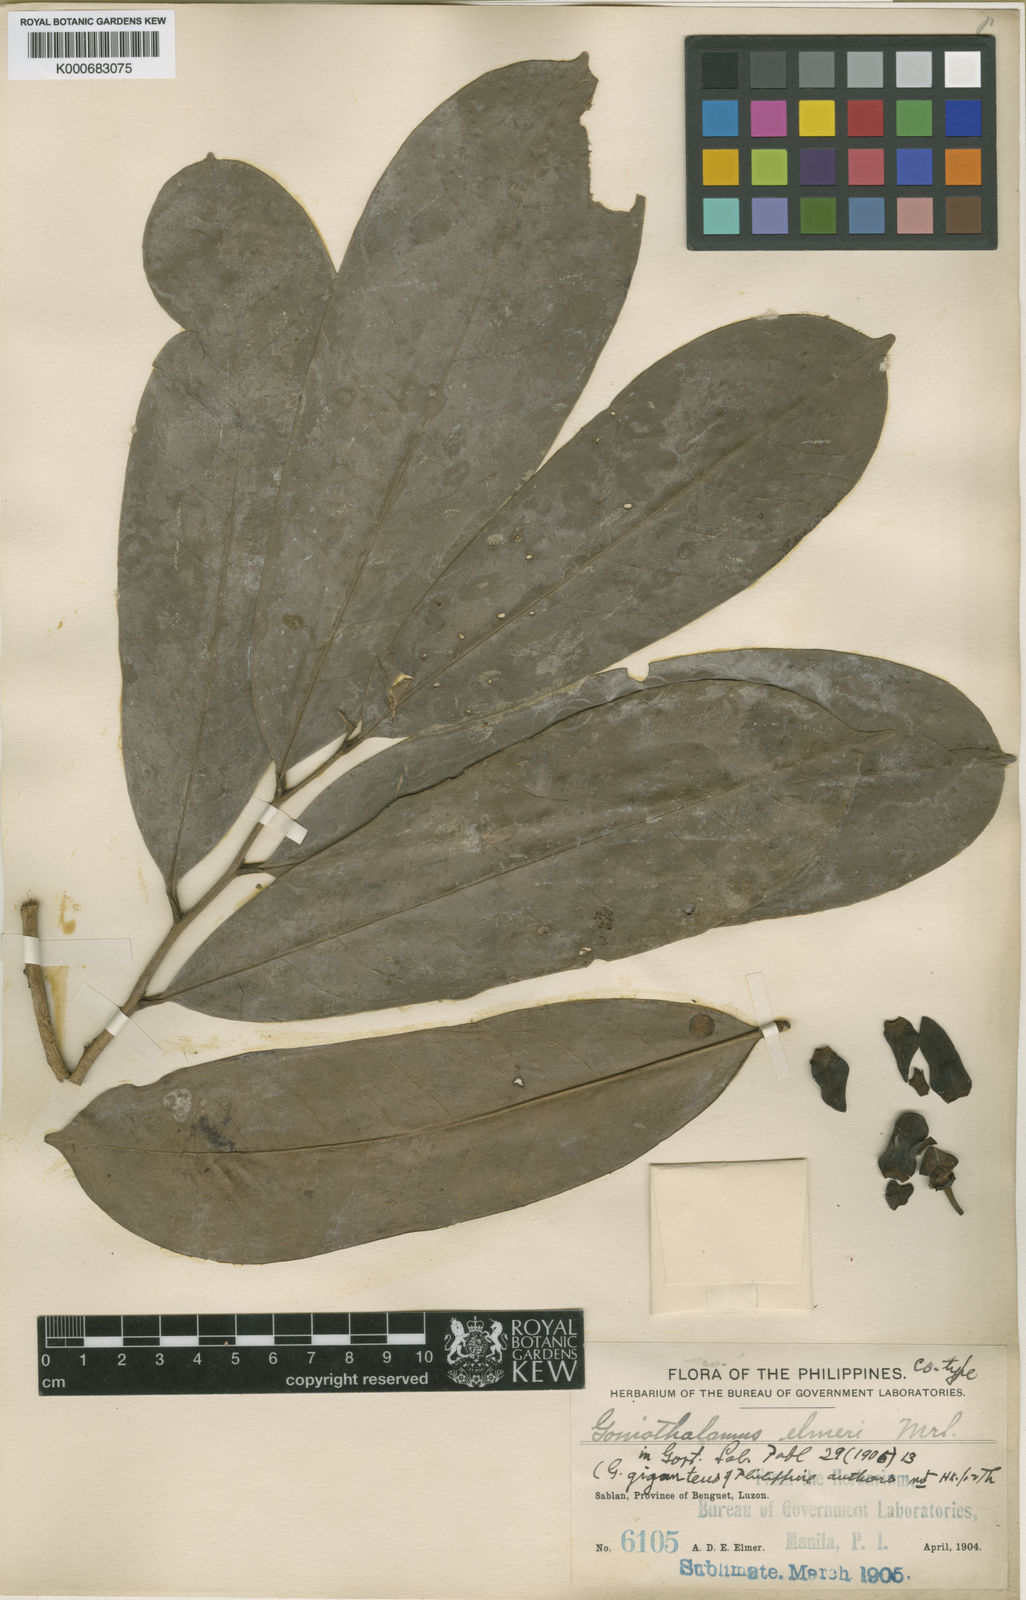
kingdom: Plantae
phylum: Tracheophyta
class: Magnoliopsida
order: Magnoliales
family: Annonaceae
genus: Goniothalamus
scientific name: Goniothalamus elmeri
